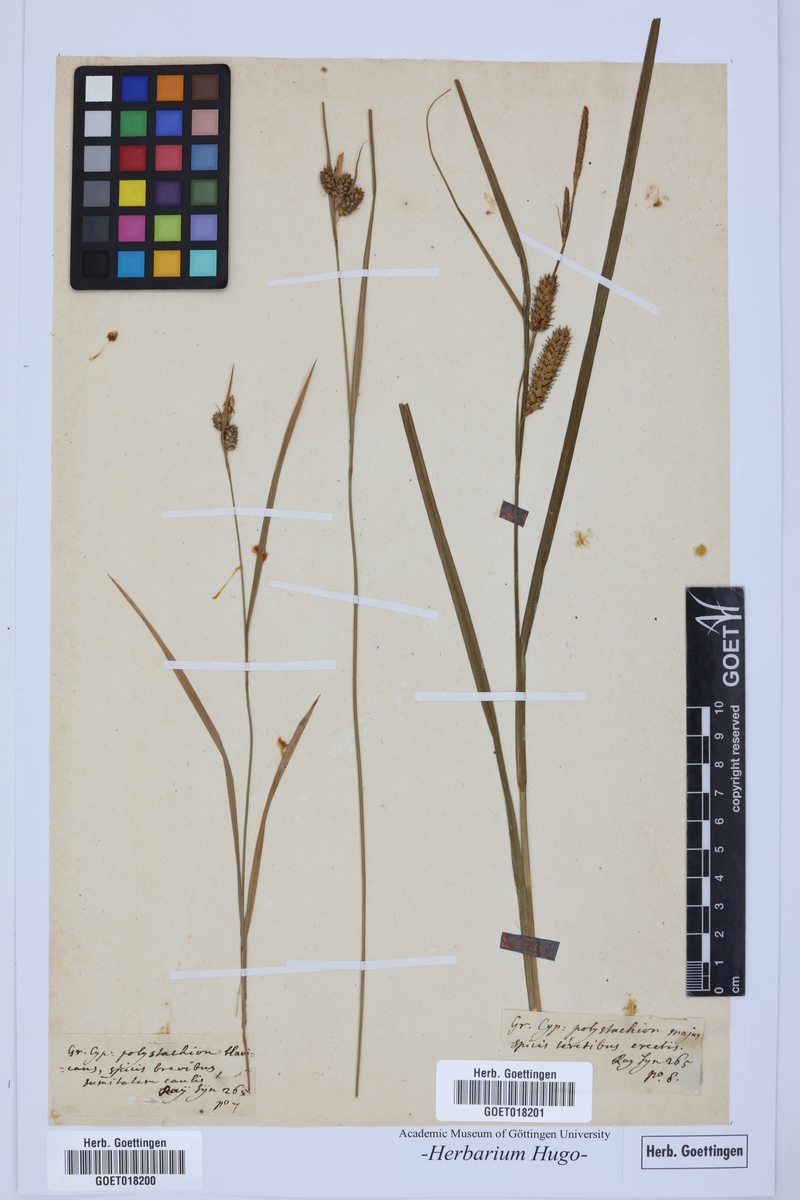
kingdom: Plantae
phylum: Tracheophyta
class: Liliopsida
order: Poales
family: Poaceae
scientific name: Poaceae
